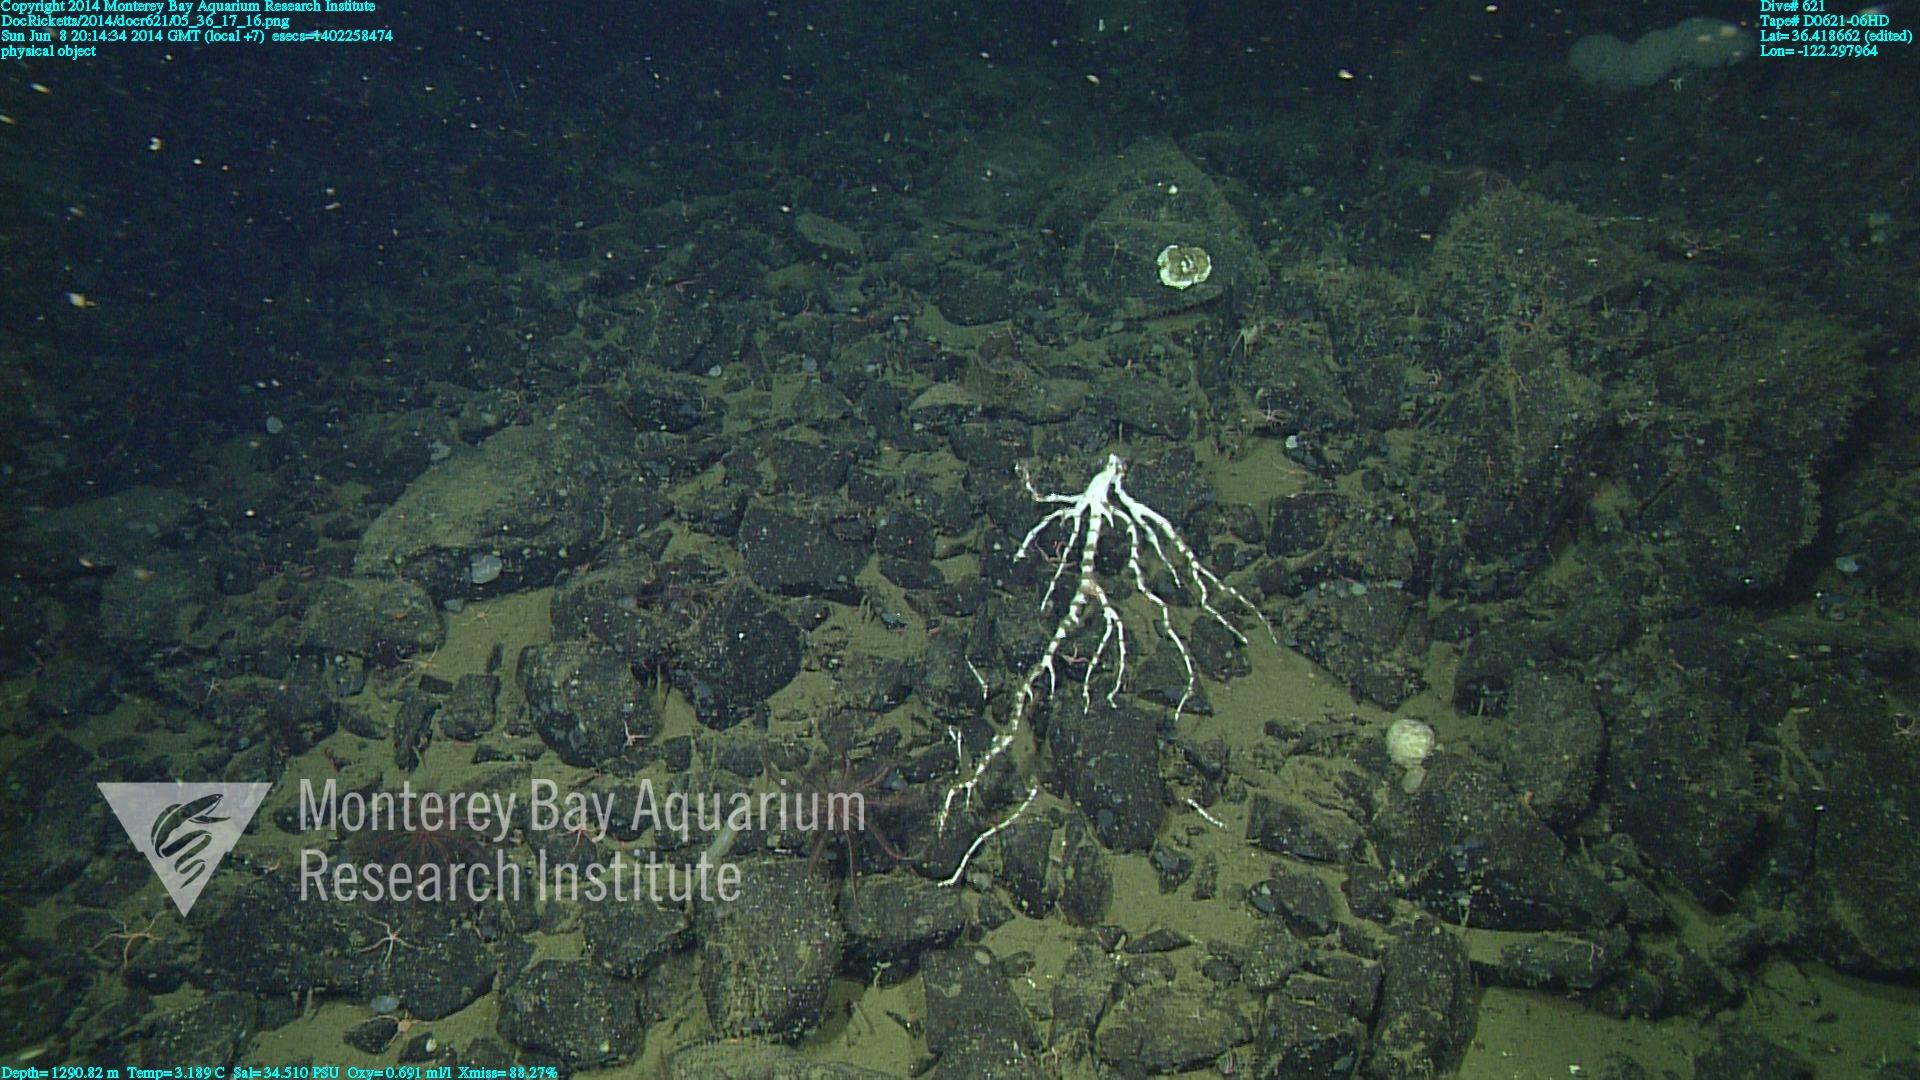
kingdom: Animalia
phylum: Cnidaria
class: Anthozoa
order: Scleralcyonacea
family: Keratoisididae
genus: Keratoisis
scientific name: Keratoisis
